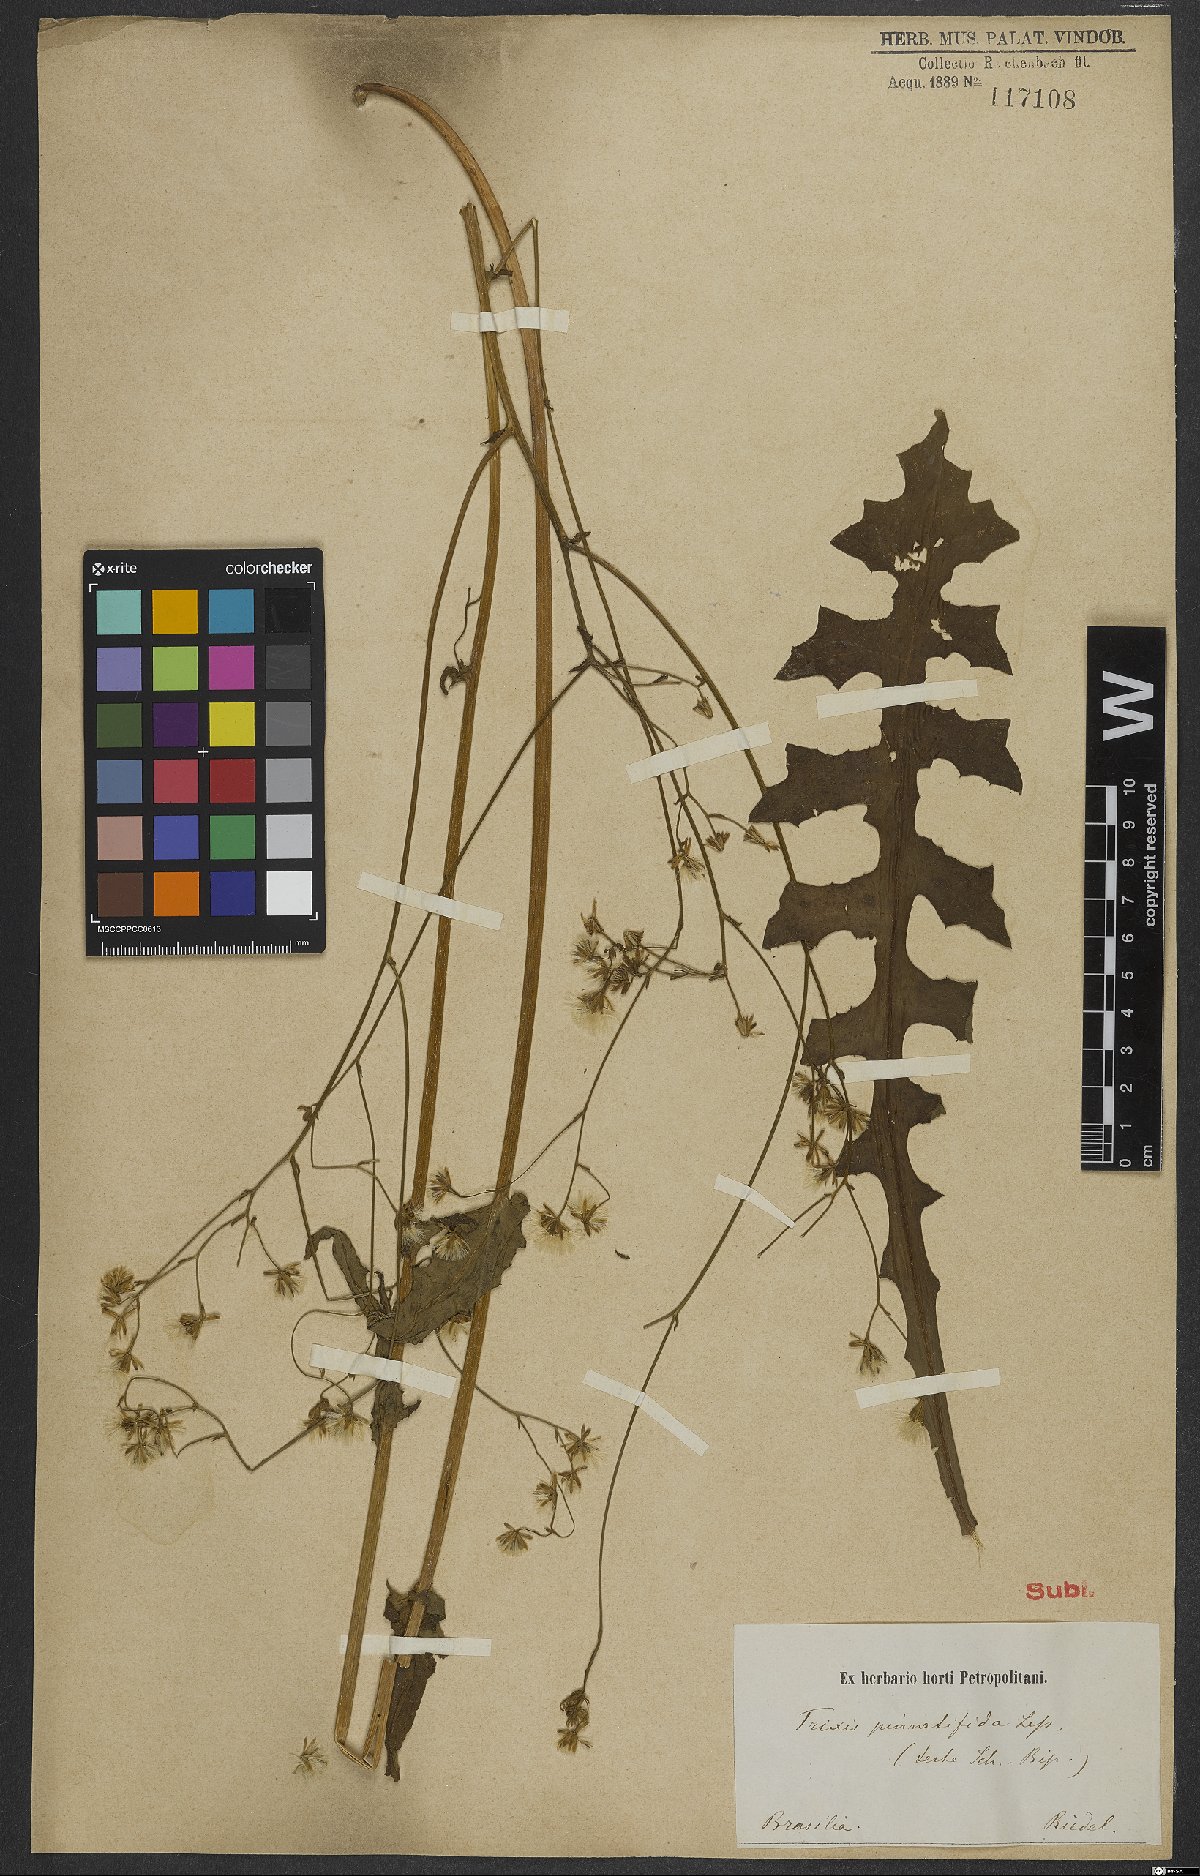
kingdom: Plantae
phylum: Tracheophyta
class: Magnoliopsida
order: Asterales
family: Asteraceae
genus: Holocheilus
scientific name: Holocheilus pinnatifidus
